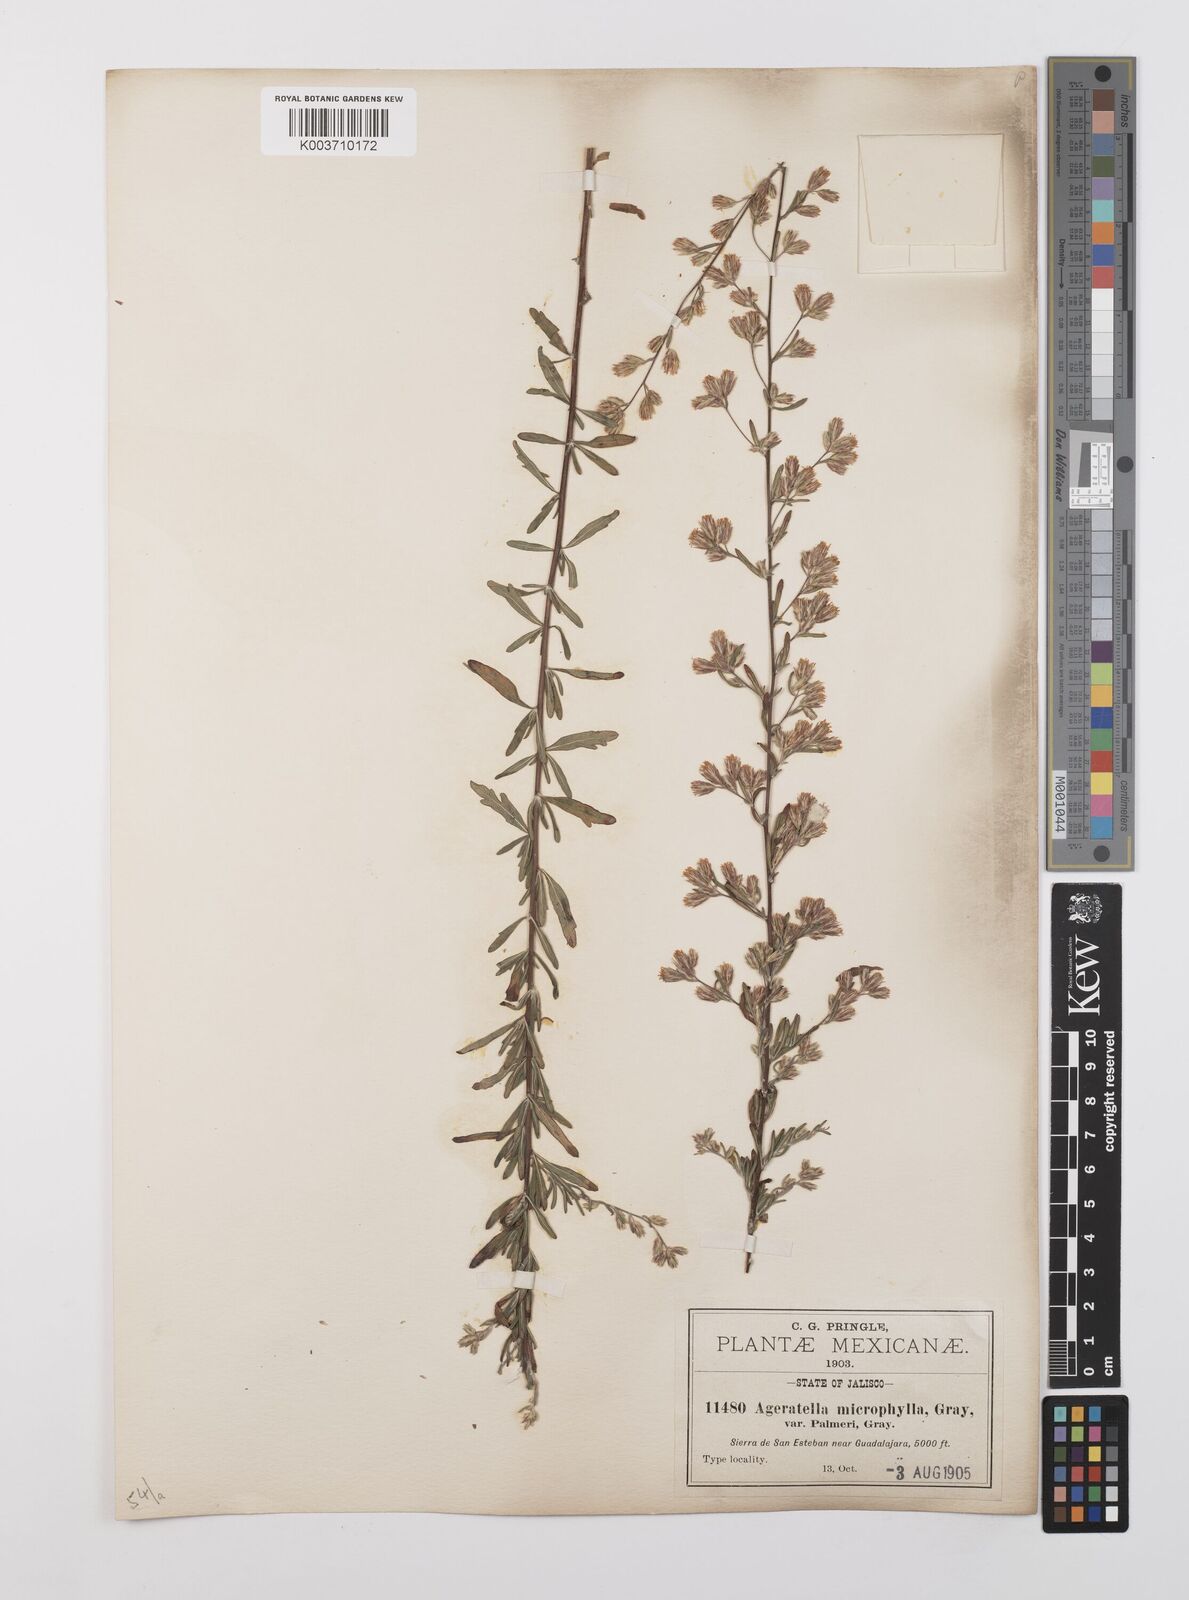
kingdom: Plantae
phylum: Tracheophyta
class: Magnoliopsida
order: Asterales
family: Asteraceae
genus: Ageratella
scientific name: Ageratella microphylla
